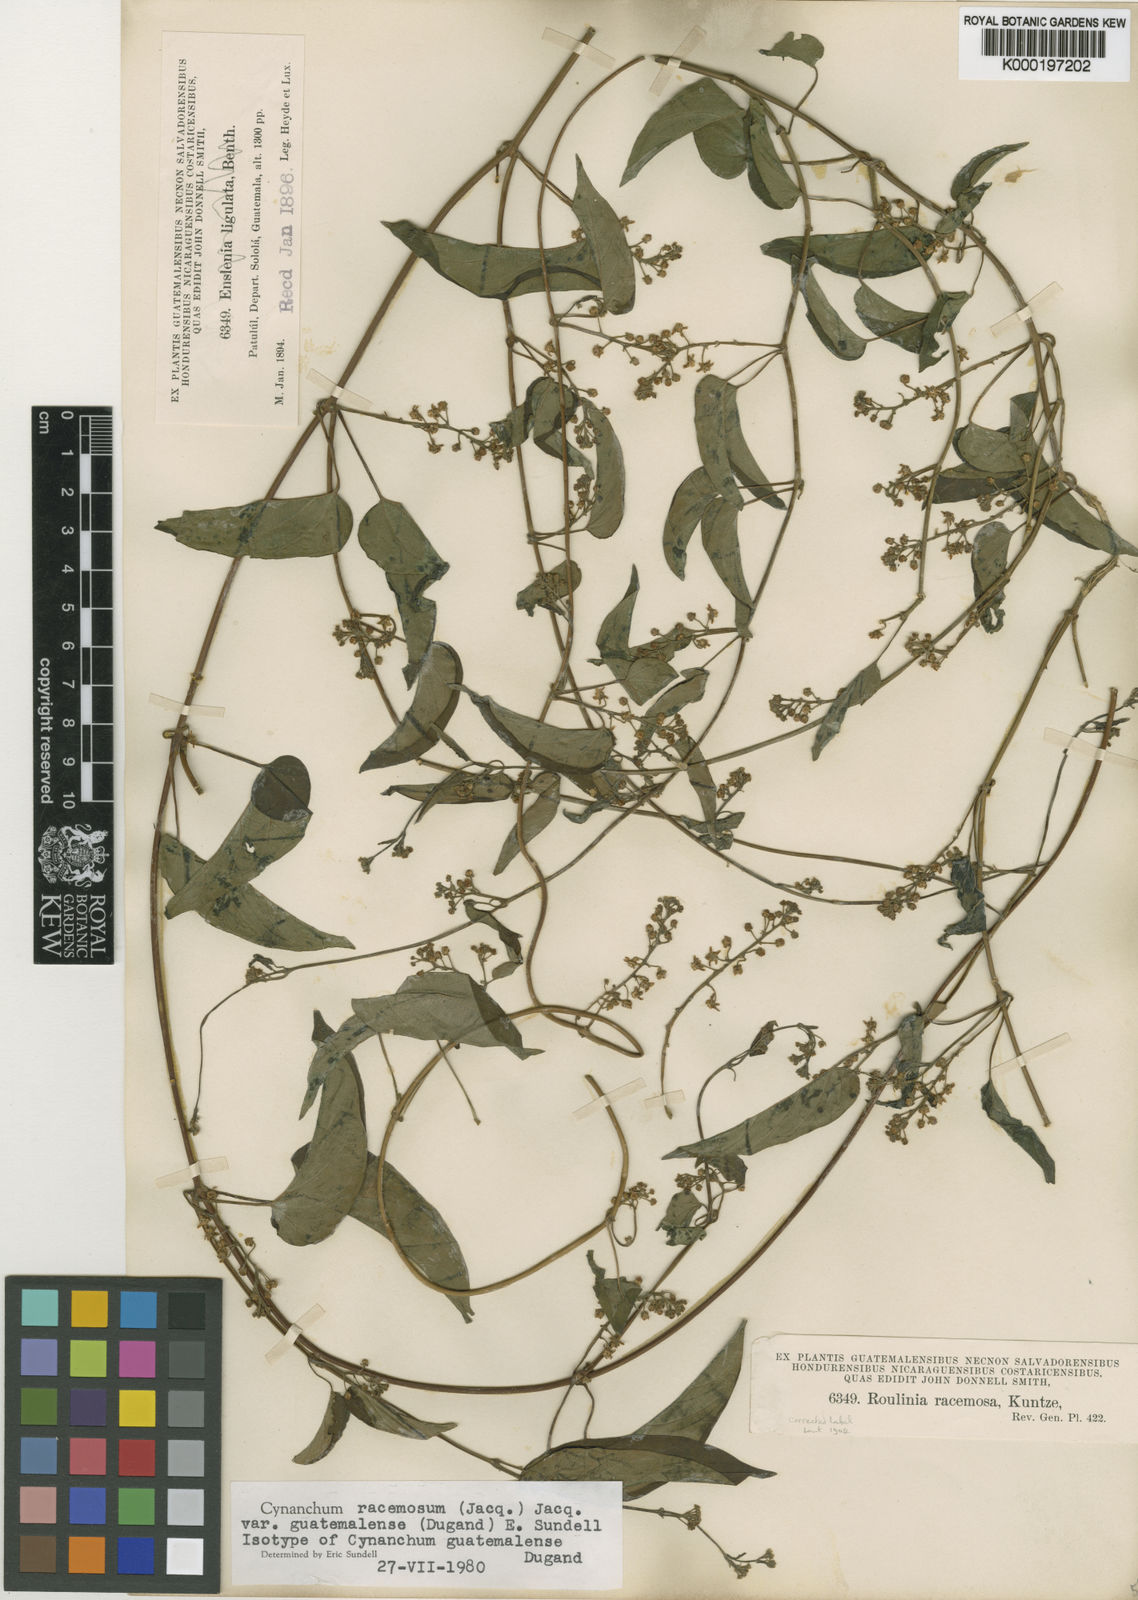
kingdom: Plantae
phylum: Tracheophyta
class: Magnoliopsida
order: Gentianales
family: Apocynaceae
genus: Cynanchum
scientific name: Cynanchum racemosum
